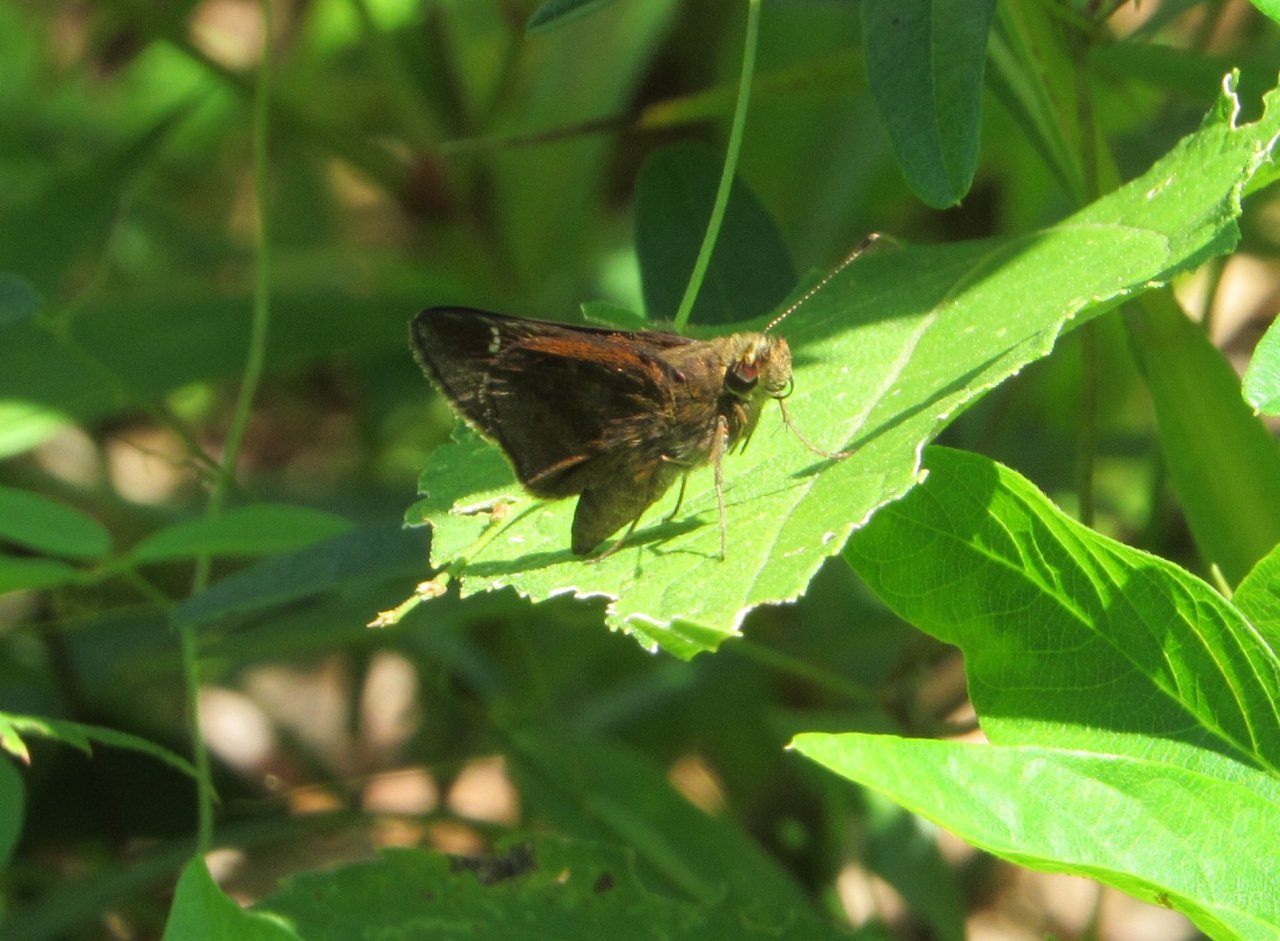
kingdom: Animalia
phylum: Arthropoda
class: Insecta
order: Lepidoptera
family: Hesperiidae
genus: Lerema
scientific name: Lerema accius
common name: Clouded Skipper
